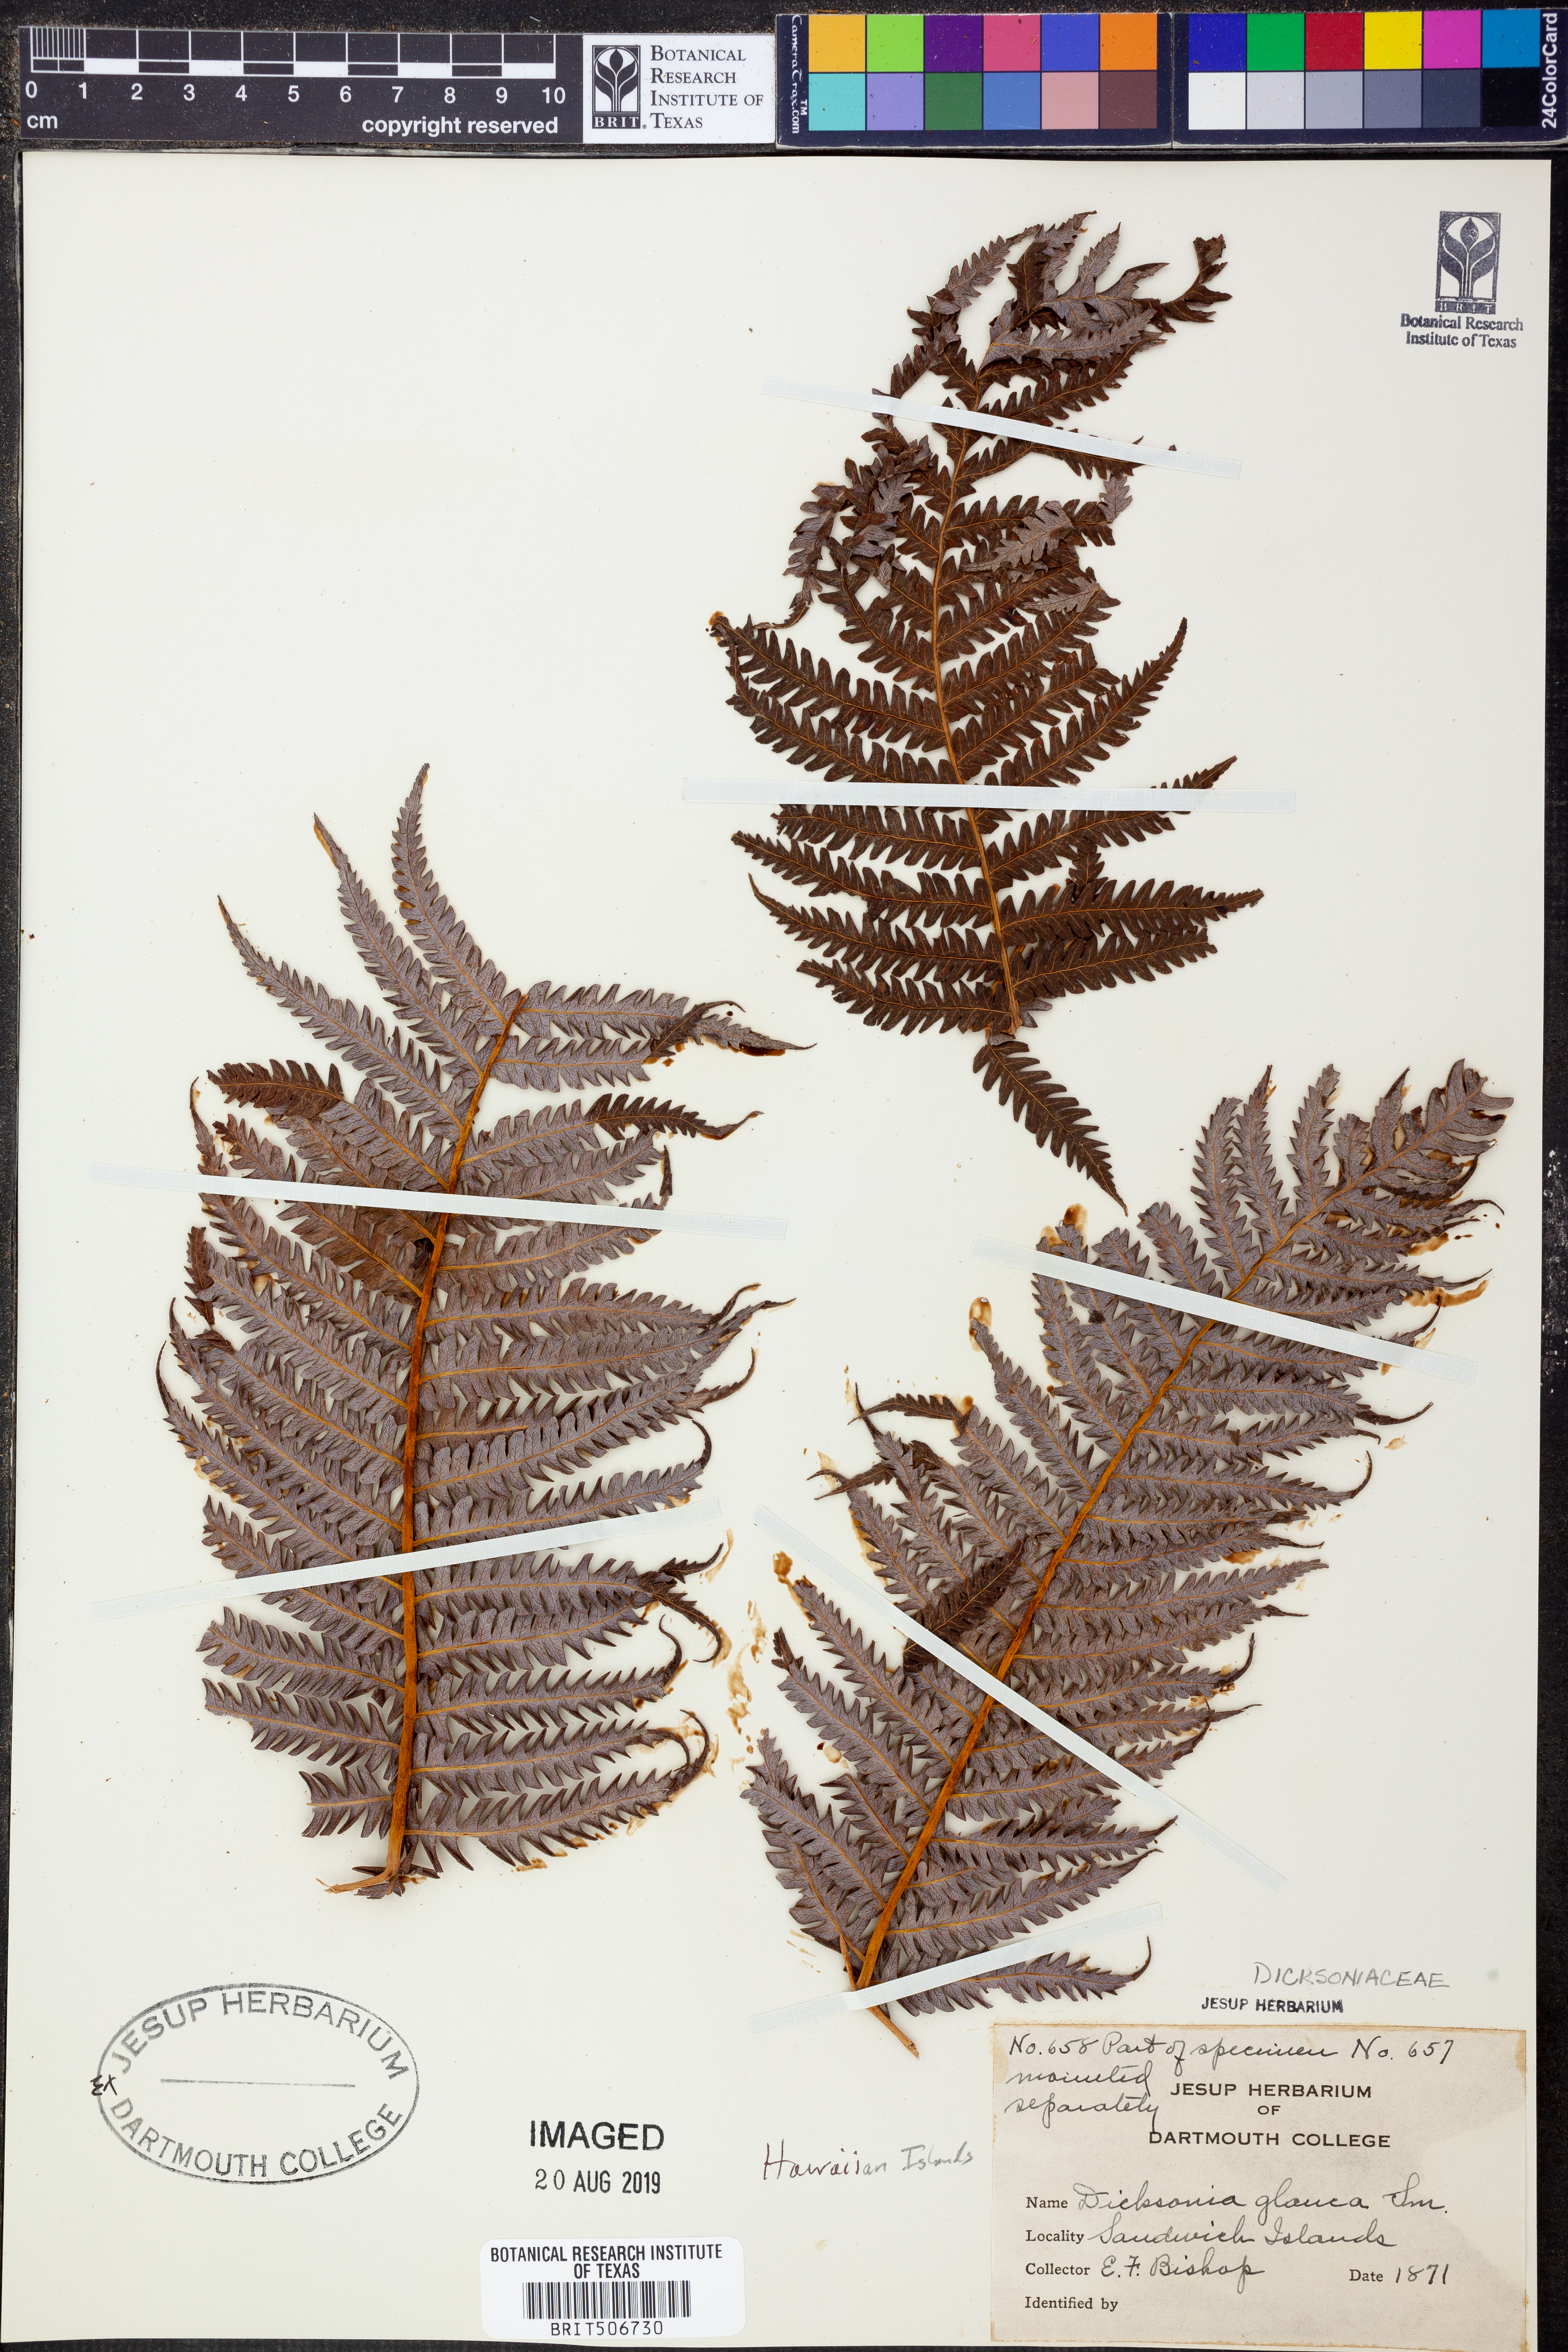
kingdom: Plantae
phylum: Tracheophyta
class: Polypodiopsida
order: Cyatheales
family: Cibotiaceae
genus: Cibotium
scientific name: Cibotium glaucum
